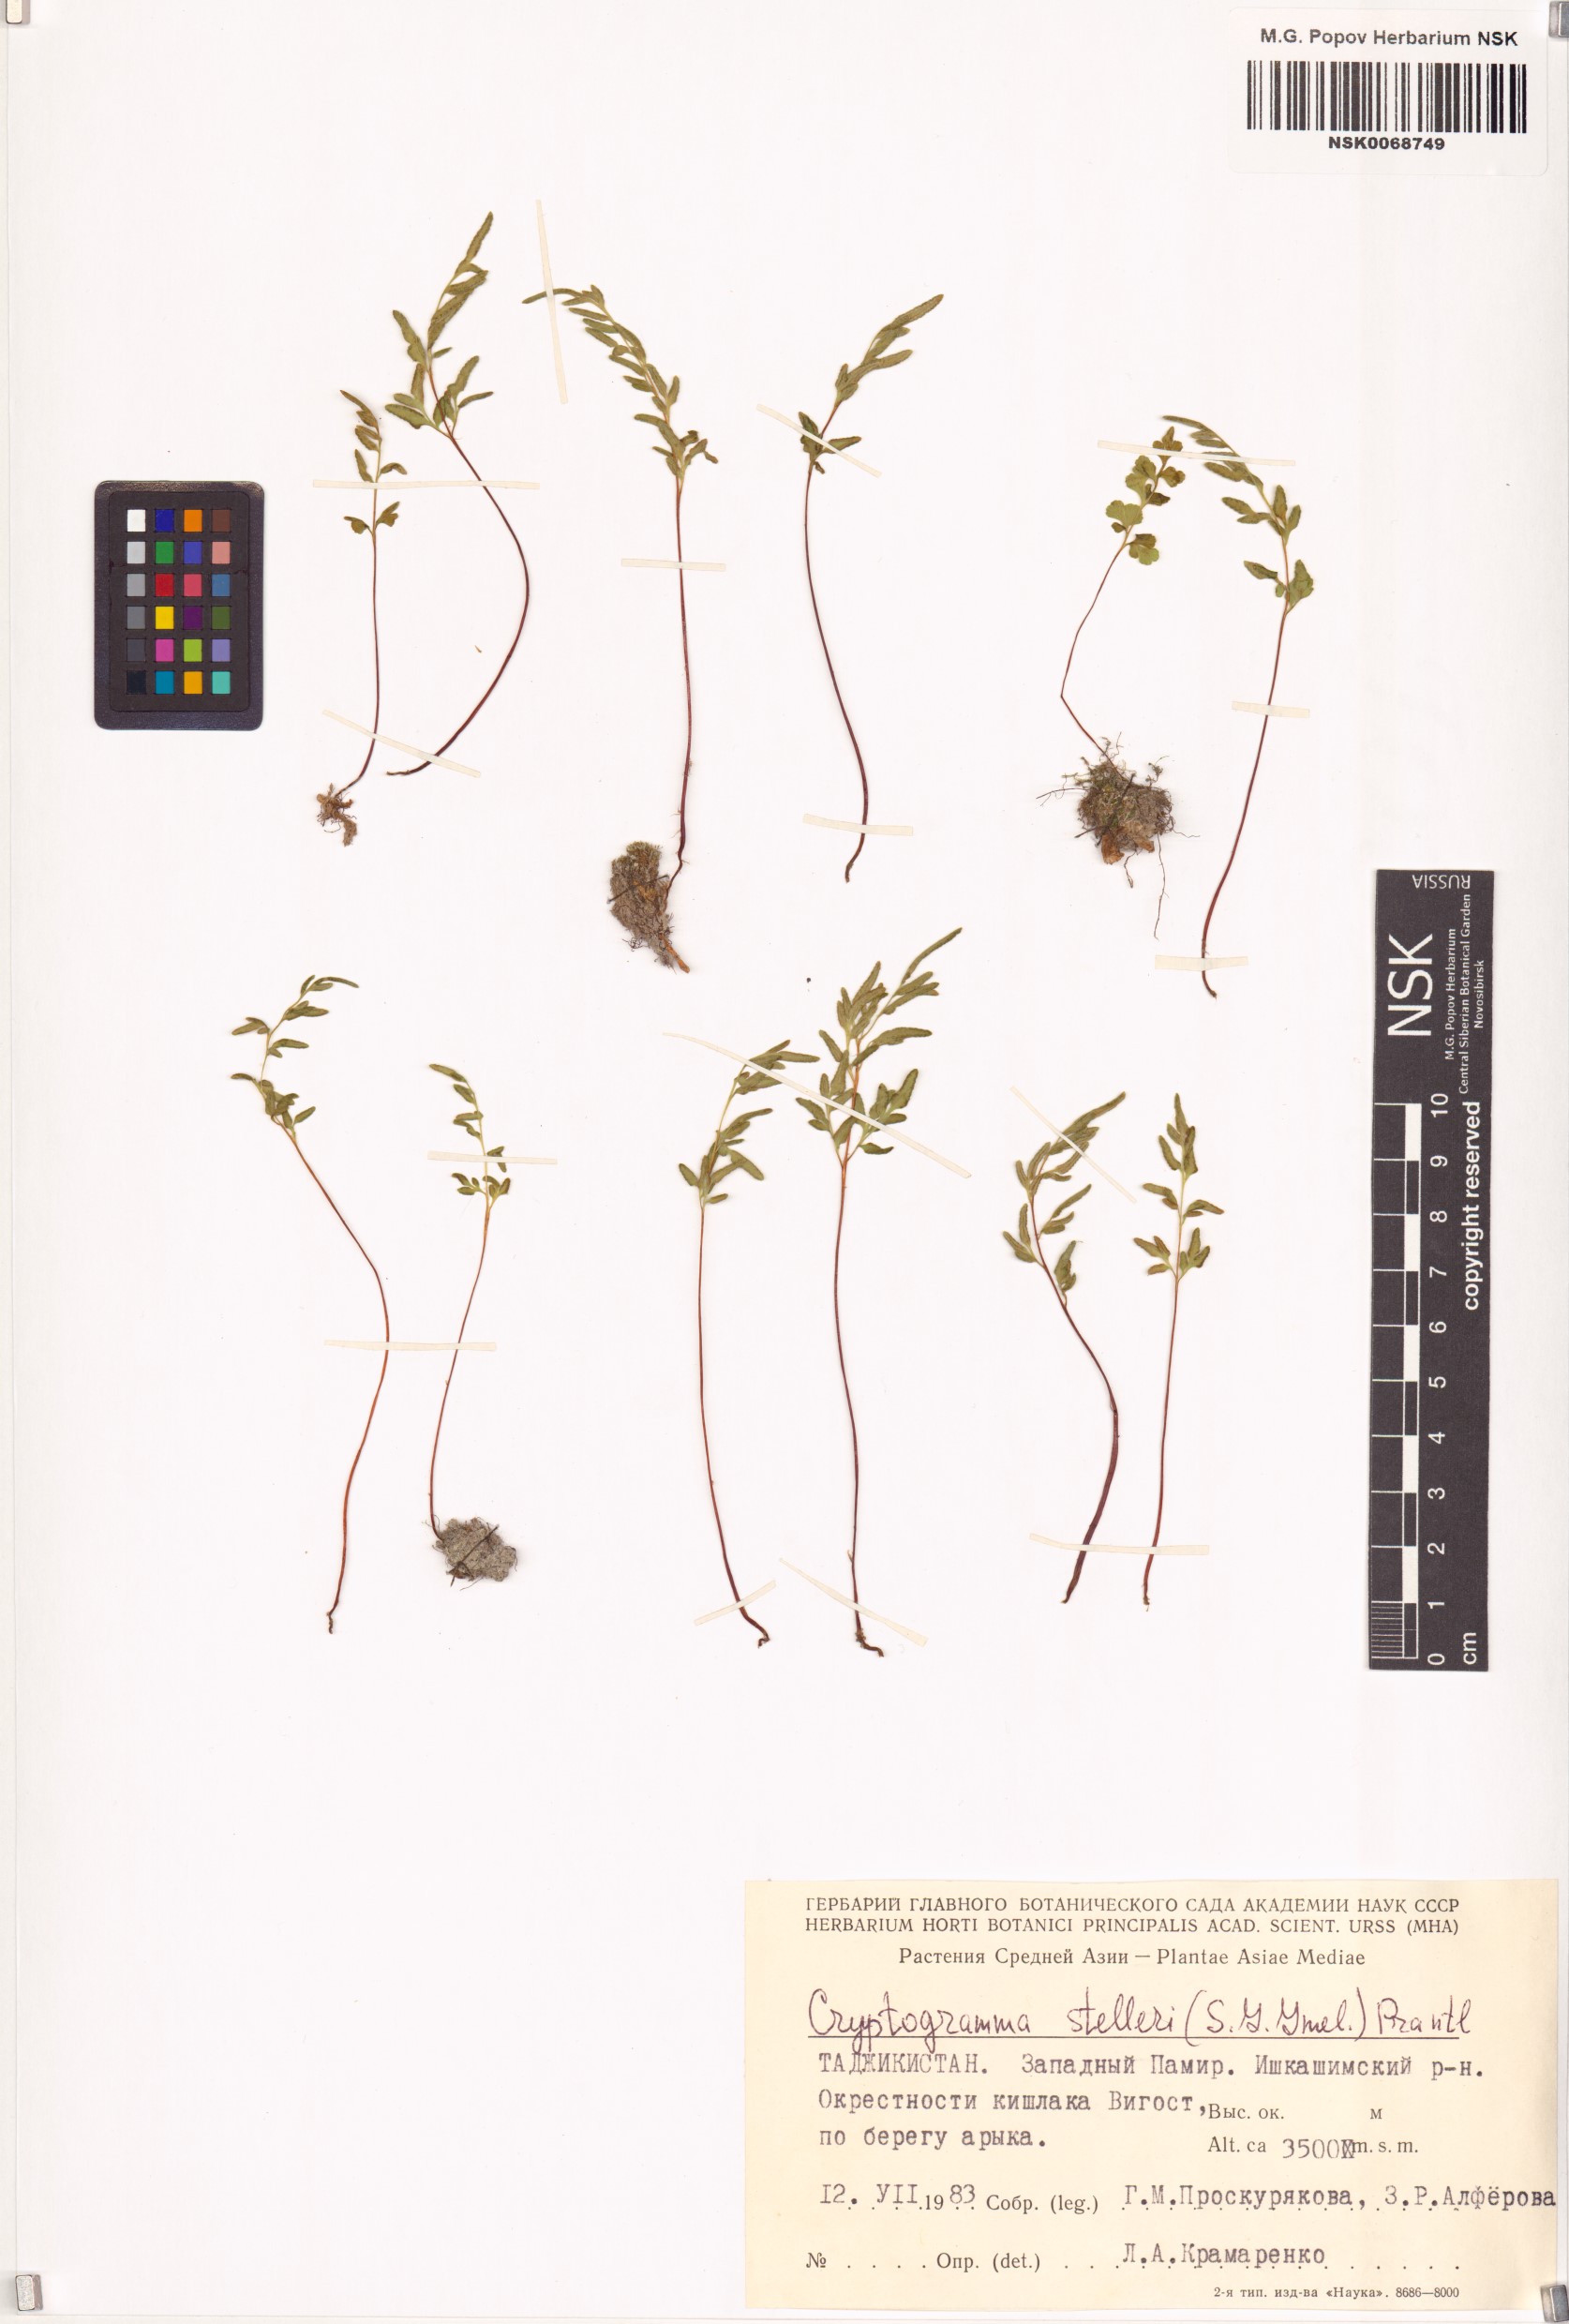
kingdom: Plantae
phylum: Tracheophyta
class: Polypodiopsida
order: Polypodiales
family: Pteridaceae
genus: Cryptogramma
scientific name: Cryptogramma stelleri
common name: Cliff-brake
